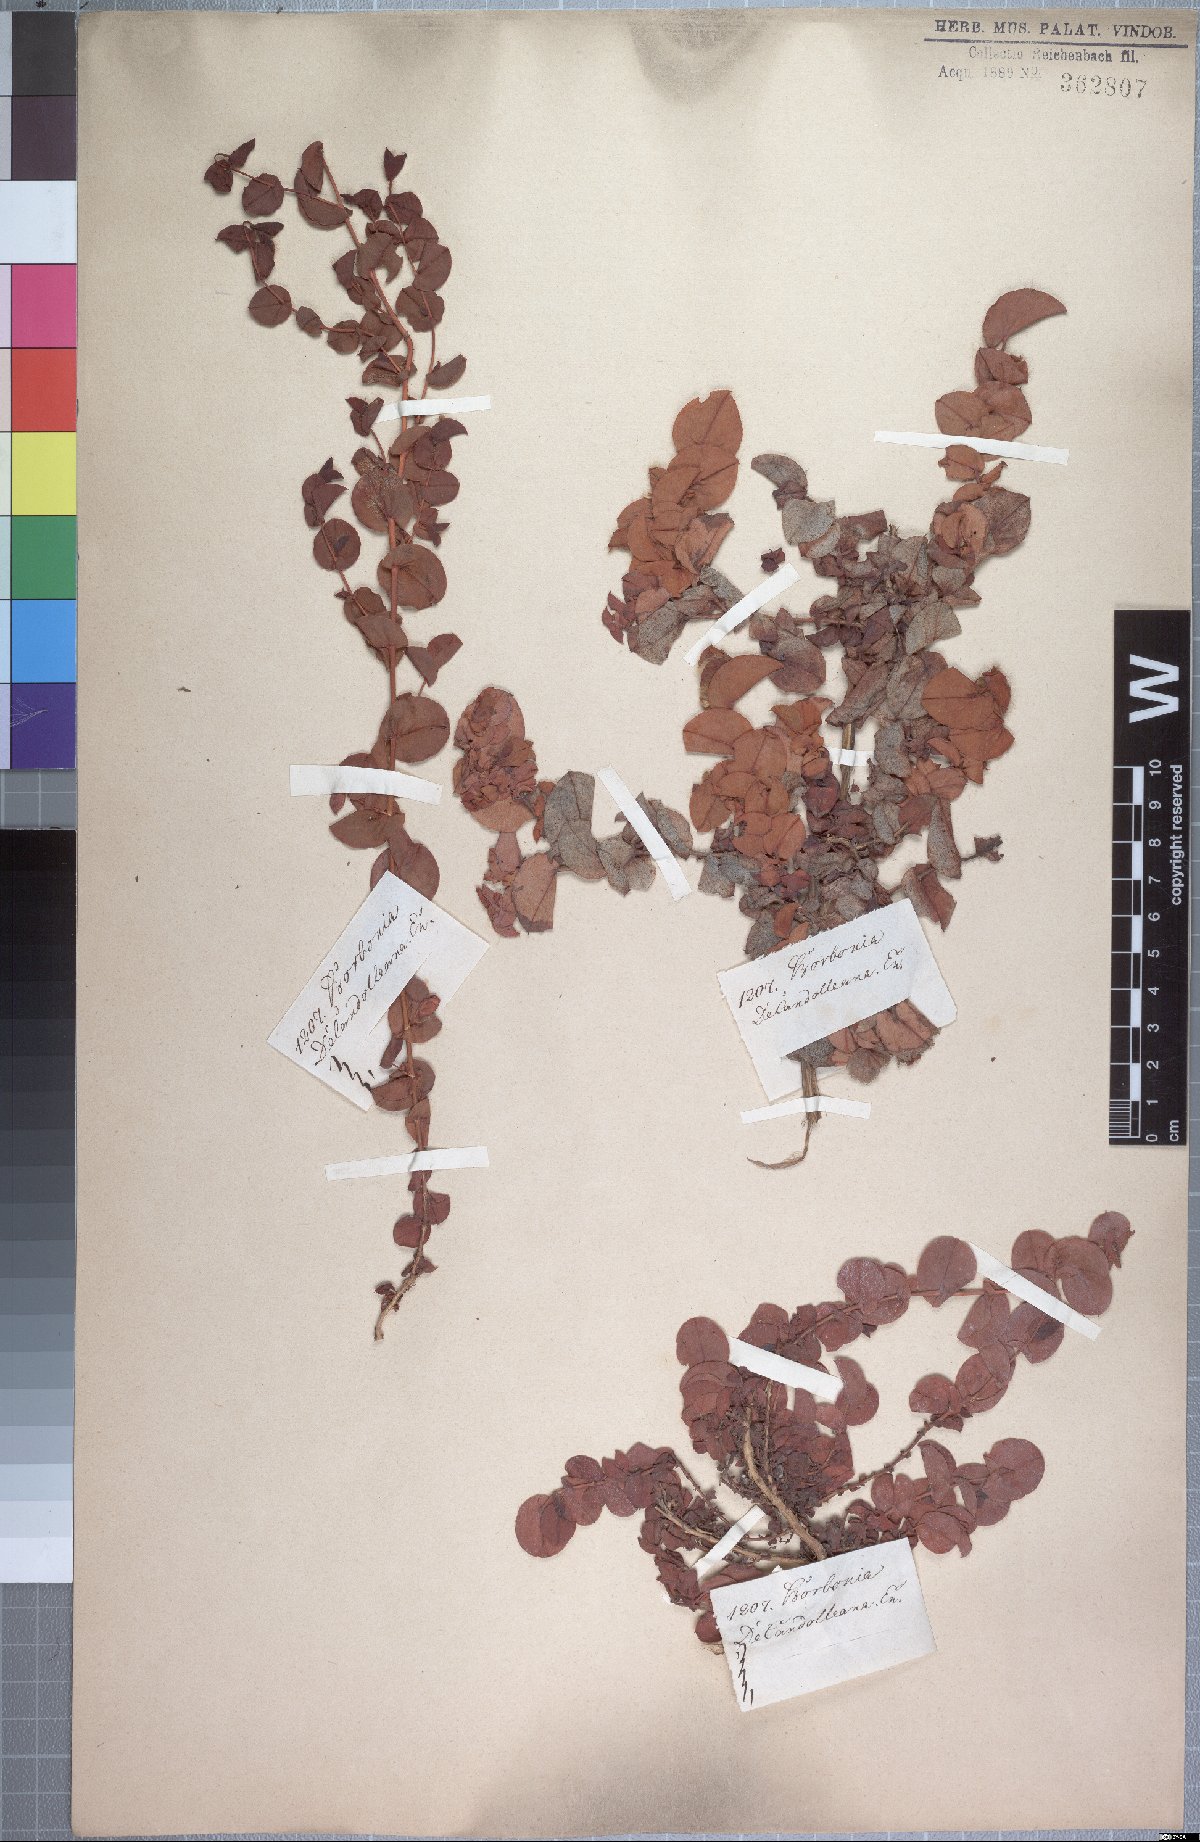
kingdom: Plantae
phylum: Tracheophyta
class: Magnoliopsida
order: Fabales
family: Fabaceae
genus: Aspalathus
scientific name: Aspalathus perforata
